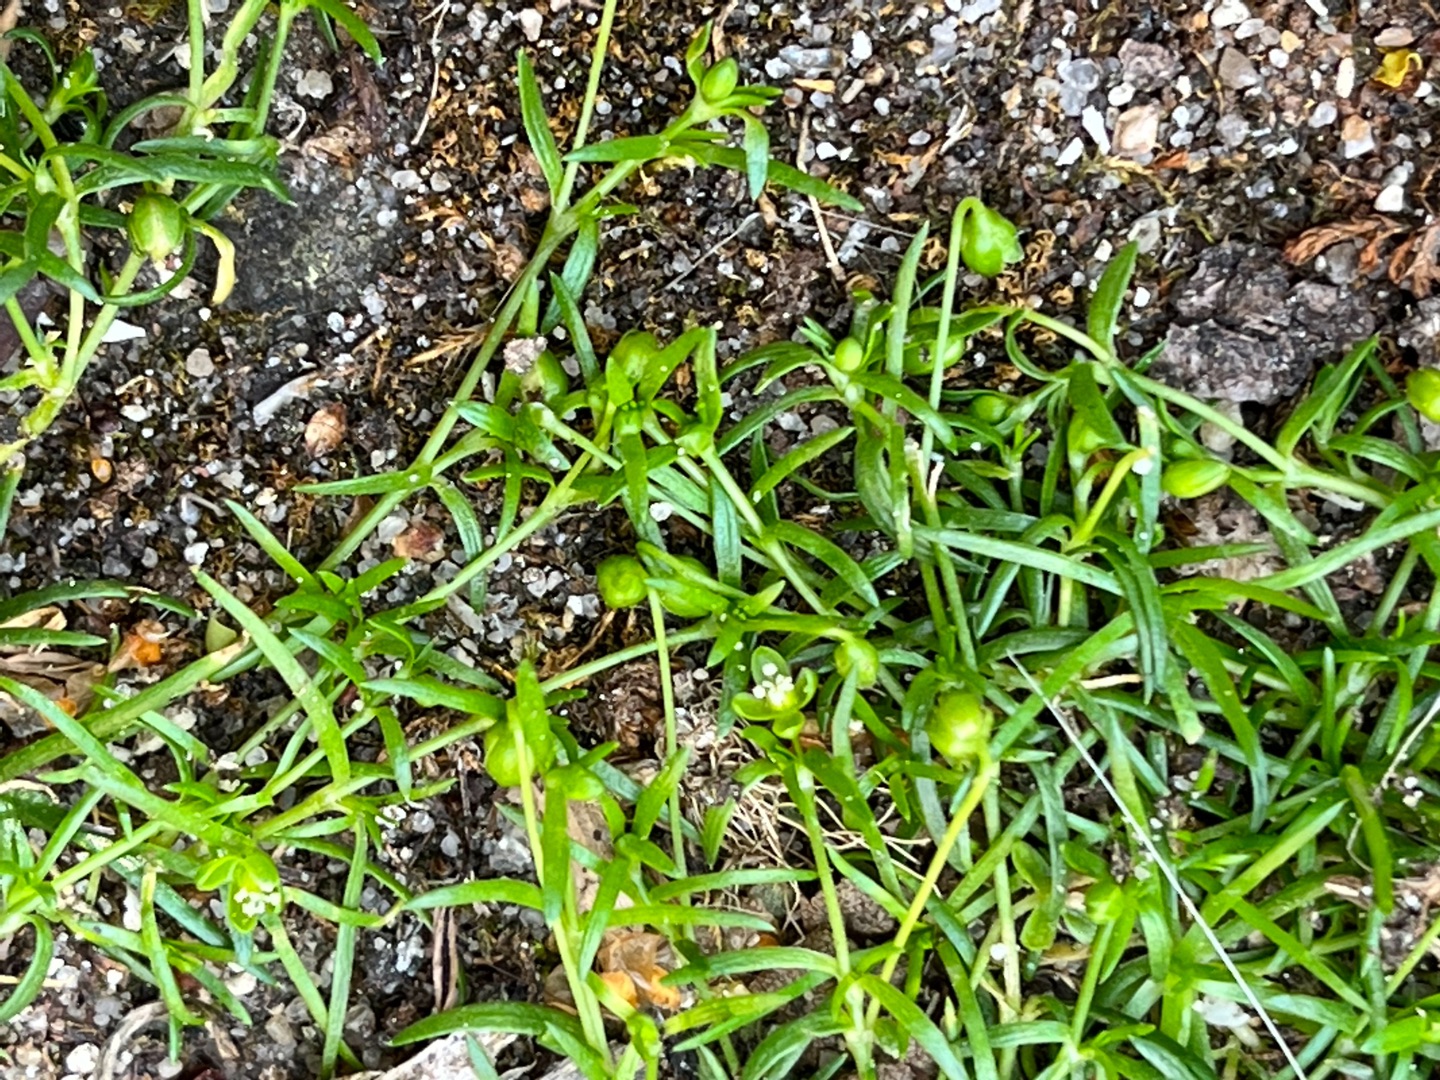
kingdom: Plantae
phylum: Tracheophyta
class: Magnoliopsida
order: Caryophyllales
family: Caryophyllaceae
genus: Sagina
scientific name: Sagina micropetala
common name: Håret firling
